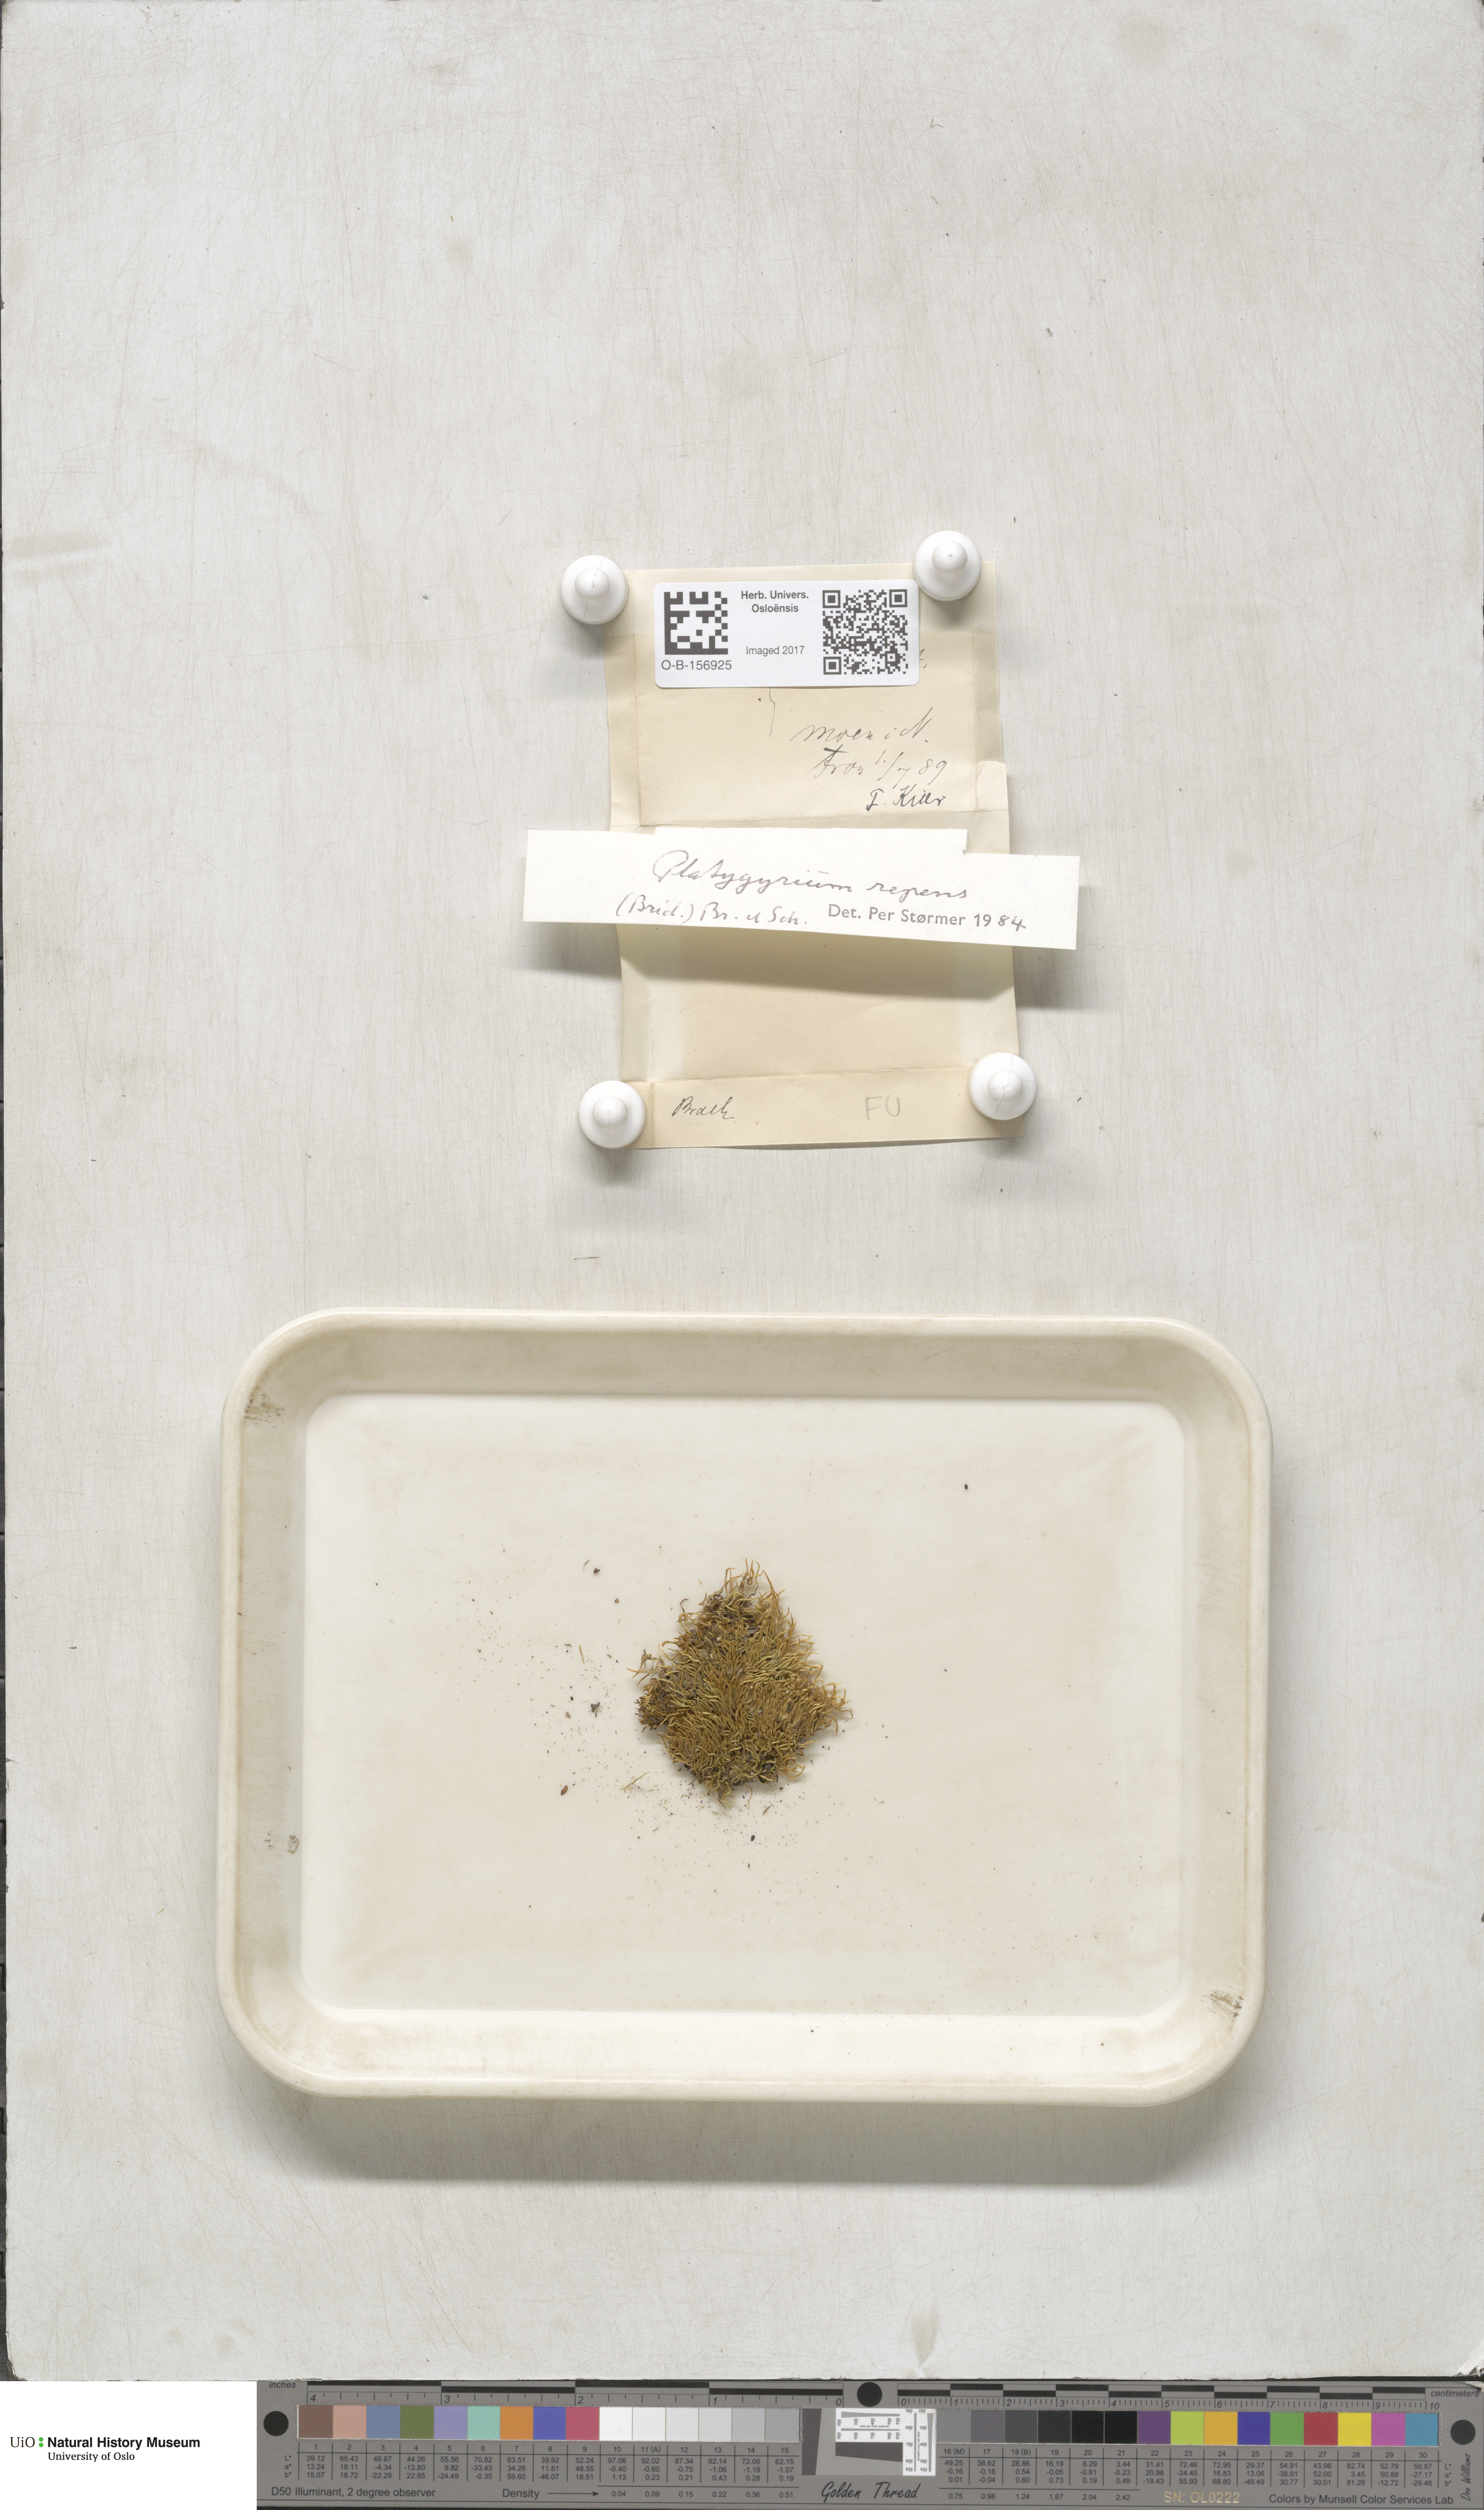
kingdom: Plantae
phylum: Bryophyta
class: Bryopsida
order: Hypnales
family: Pylaisiadelphaceae
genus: Platygyrium
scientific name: Platygyrium repens
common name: Flat-brocade moss
